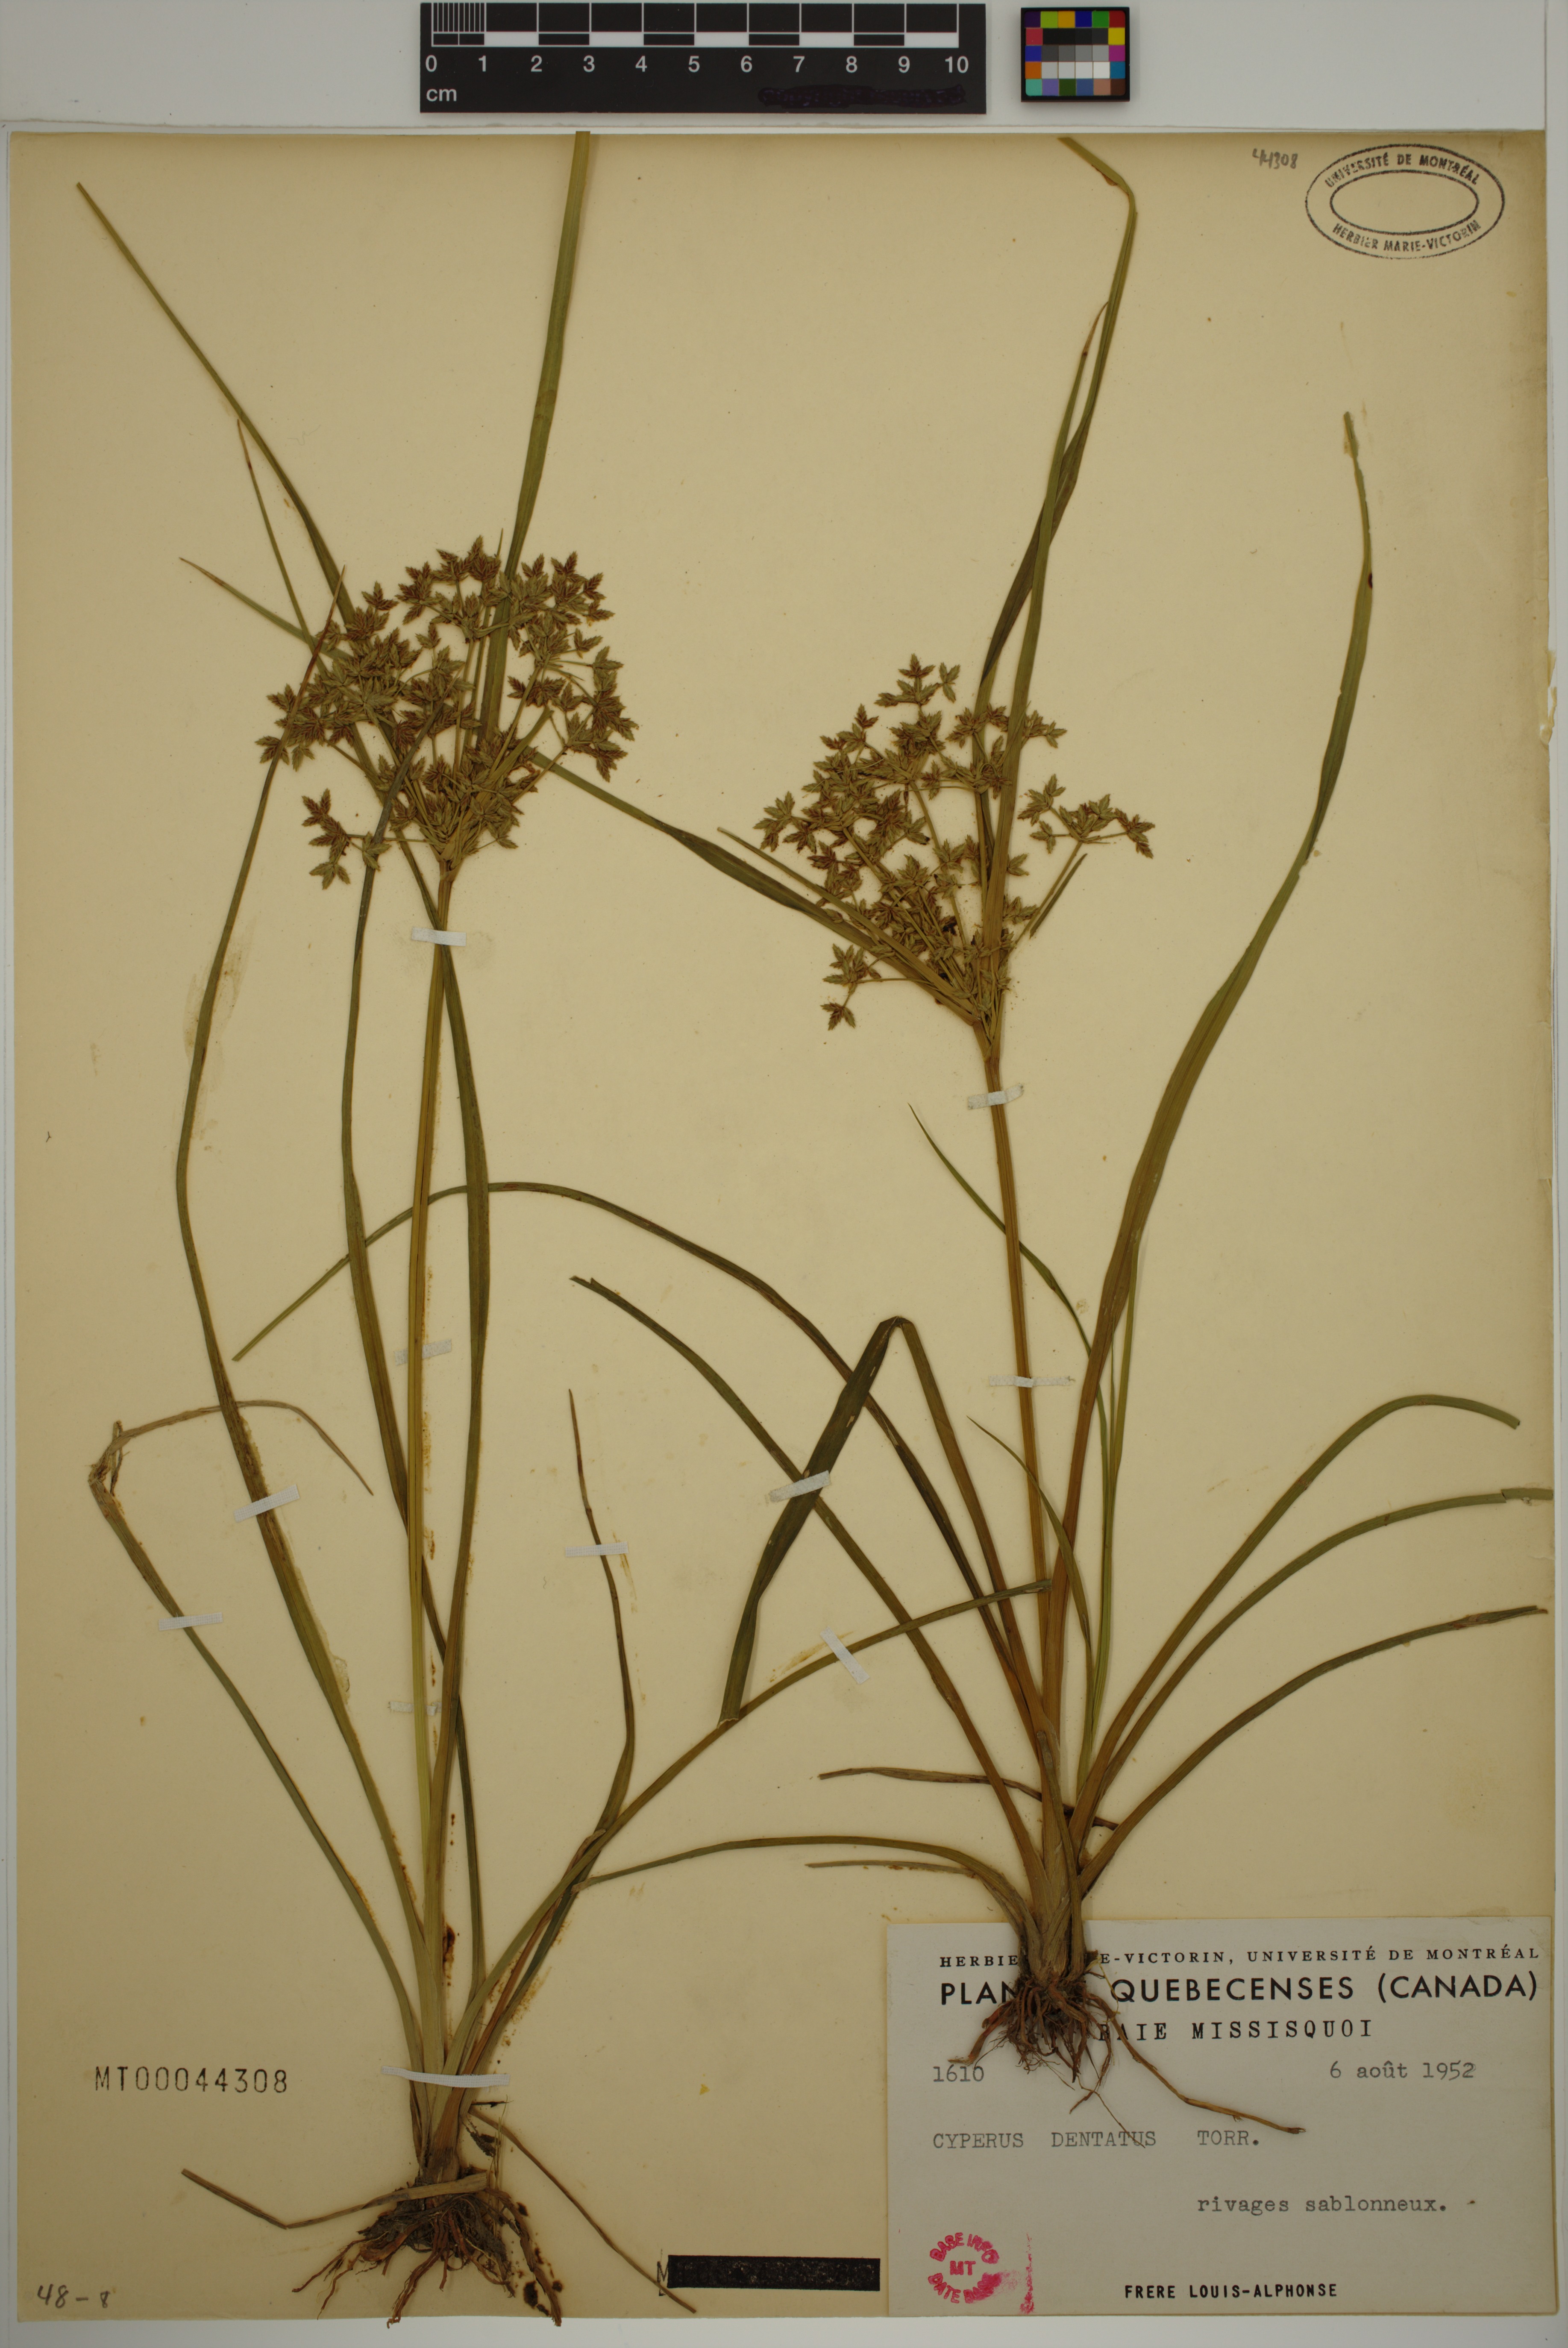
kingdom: Plantae
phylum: Tracheophyta
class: Liliopsida
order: Poales
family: Cyperaceae
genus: Cyperus
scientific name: Cyperus dentatus
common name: Dentate umbrella sedge
